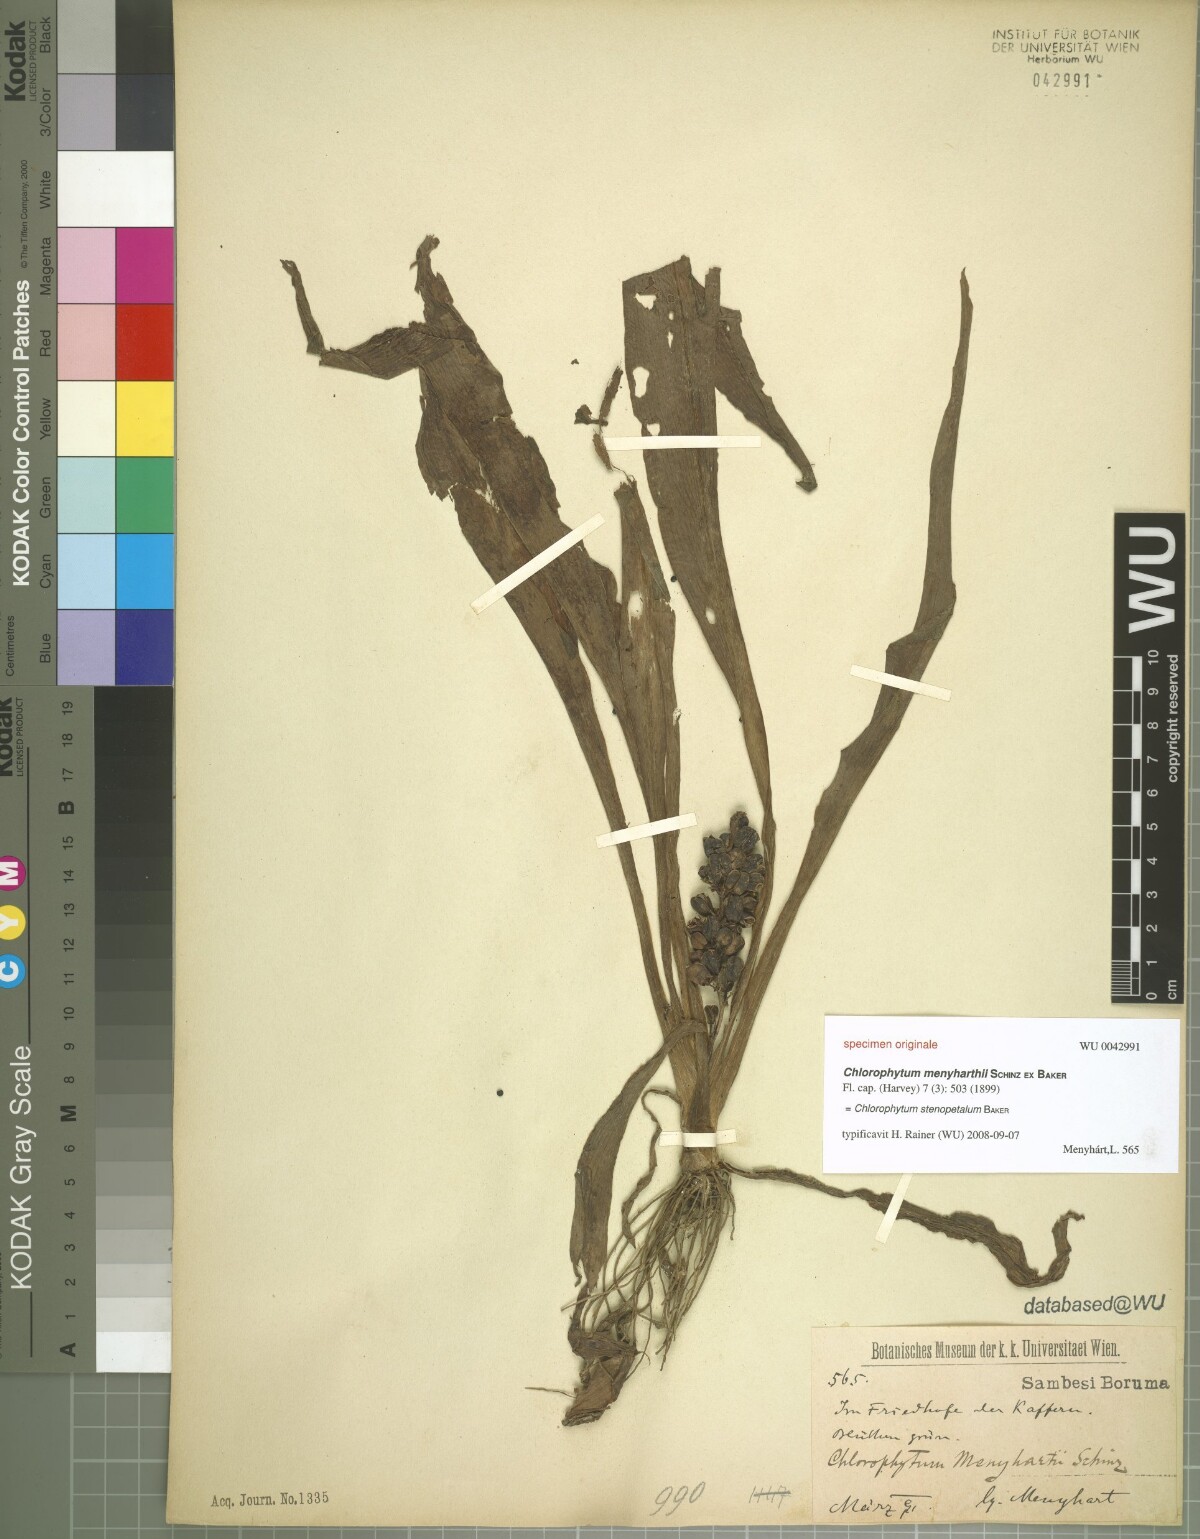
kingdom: Plantae
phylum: Tracheophyta
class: Liliopsida
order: Asparagales
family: Asparagaceae
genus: Chlorophytum
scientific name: Chlorophytum stenopetalum
